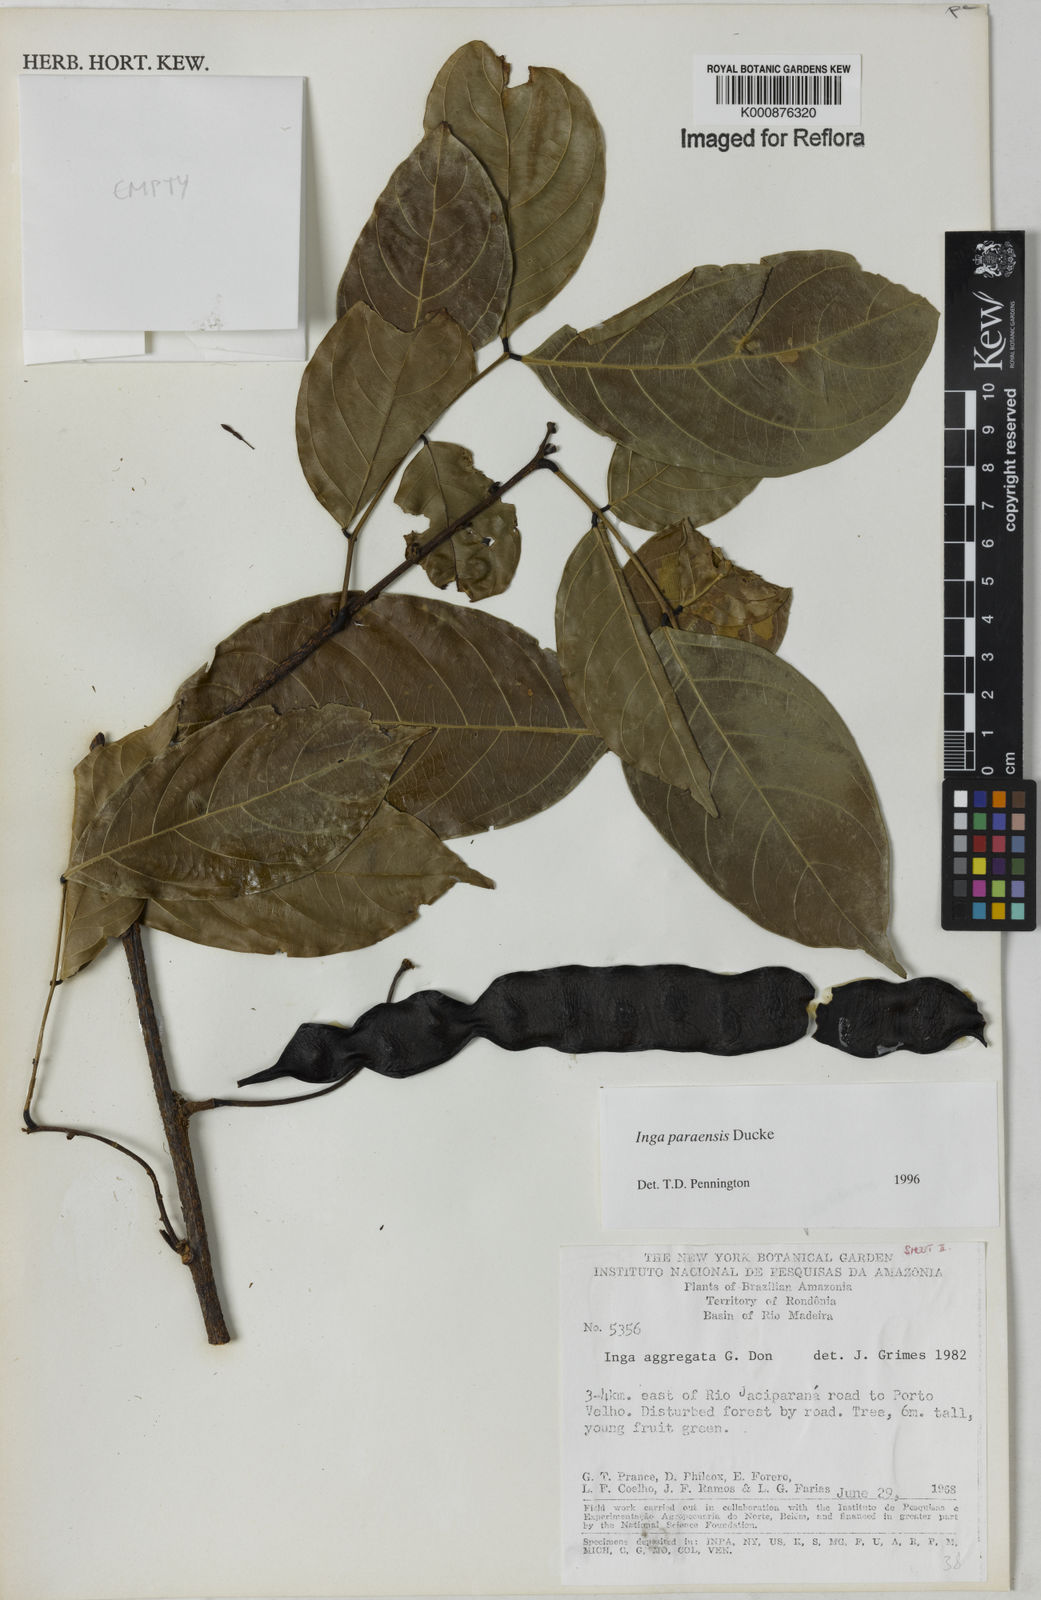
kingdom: Plantae
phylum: Tracheophyta
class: Magnoliopsida
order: Fabales
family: Fabaceae
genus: Inga
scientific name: Inga paraensis
